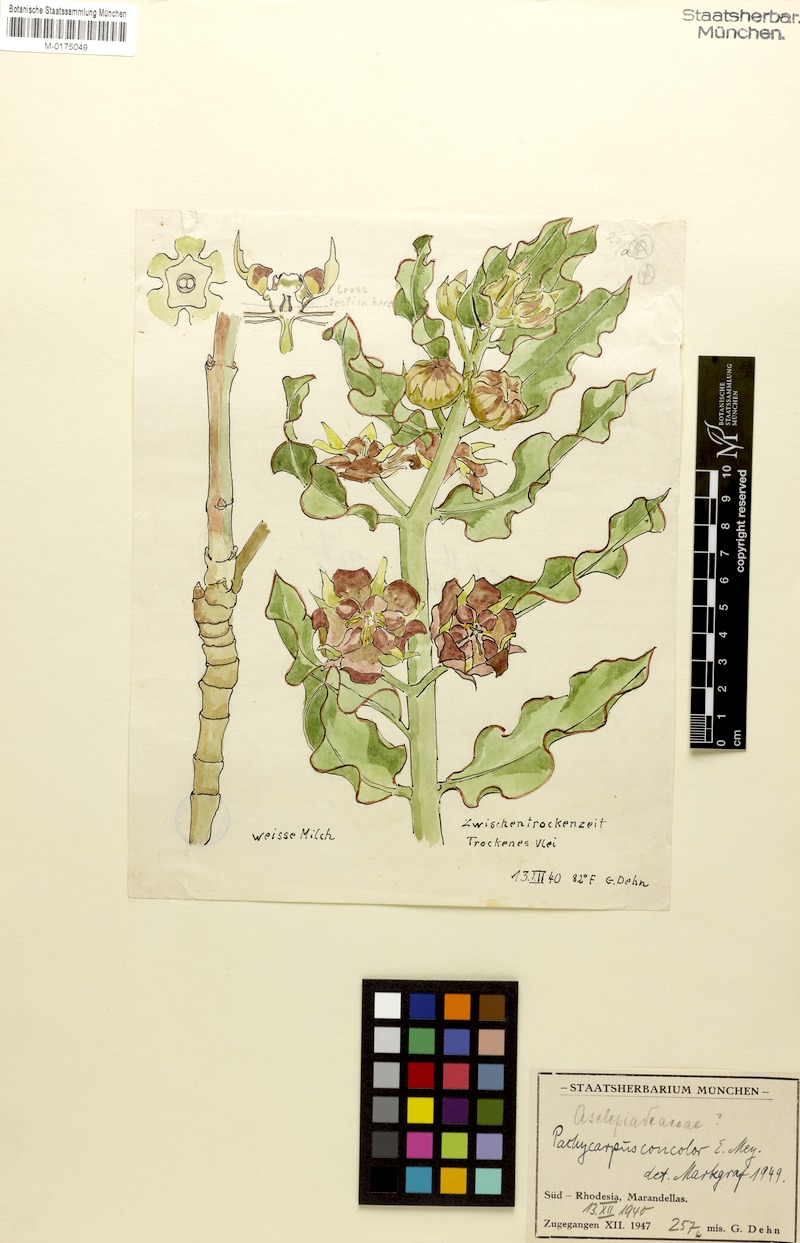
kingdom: Plantae
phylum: Tracheophyta
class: Magnoliopsida
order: Gentianales
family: Apocynaceae
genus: Pachycarpus
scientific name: Pachycarpus concolor
